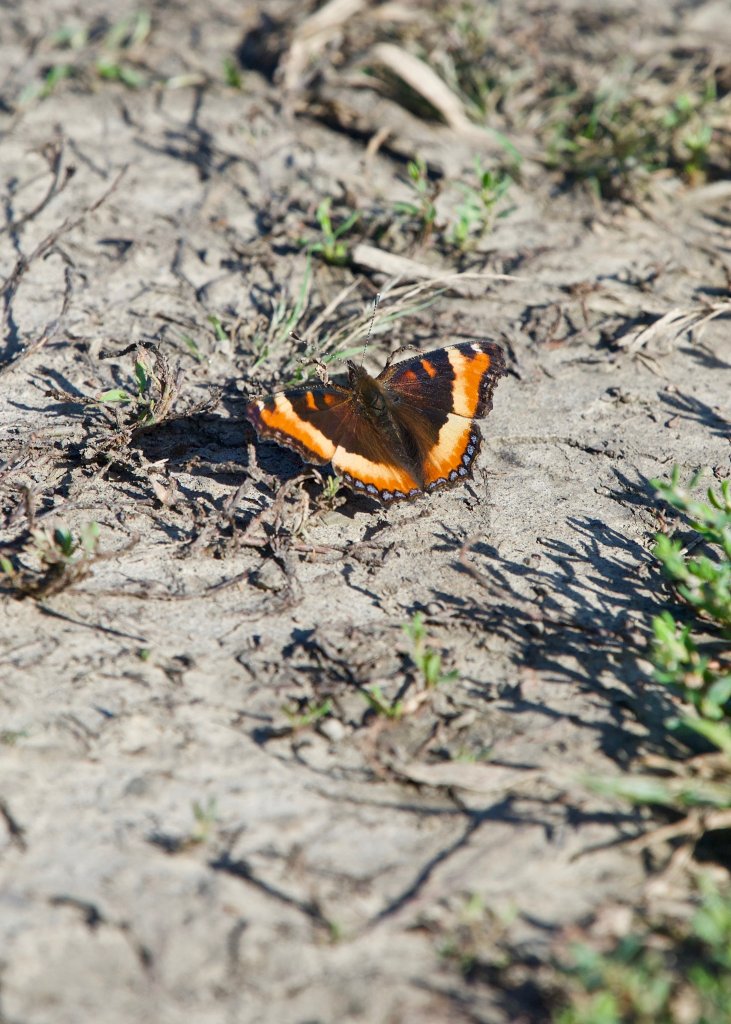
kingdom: Animalia
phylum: Arthropoda
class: Insecta
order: Lepidoptera
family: Nymphalidae
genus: Aglais
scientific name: Aglais milberti
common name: Milbert's Tortoiseshell
